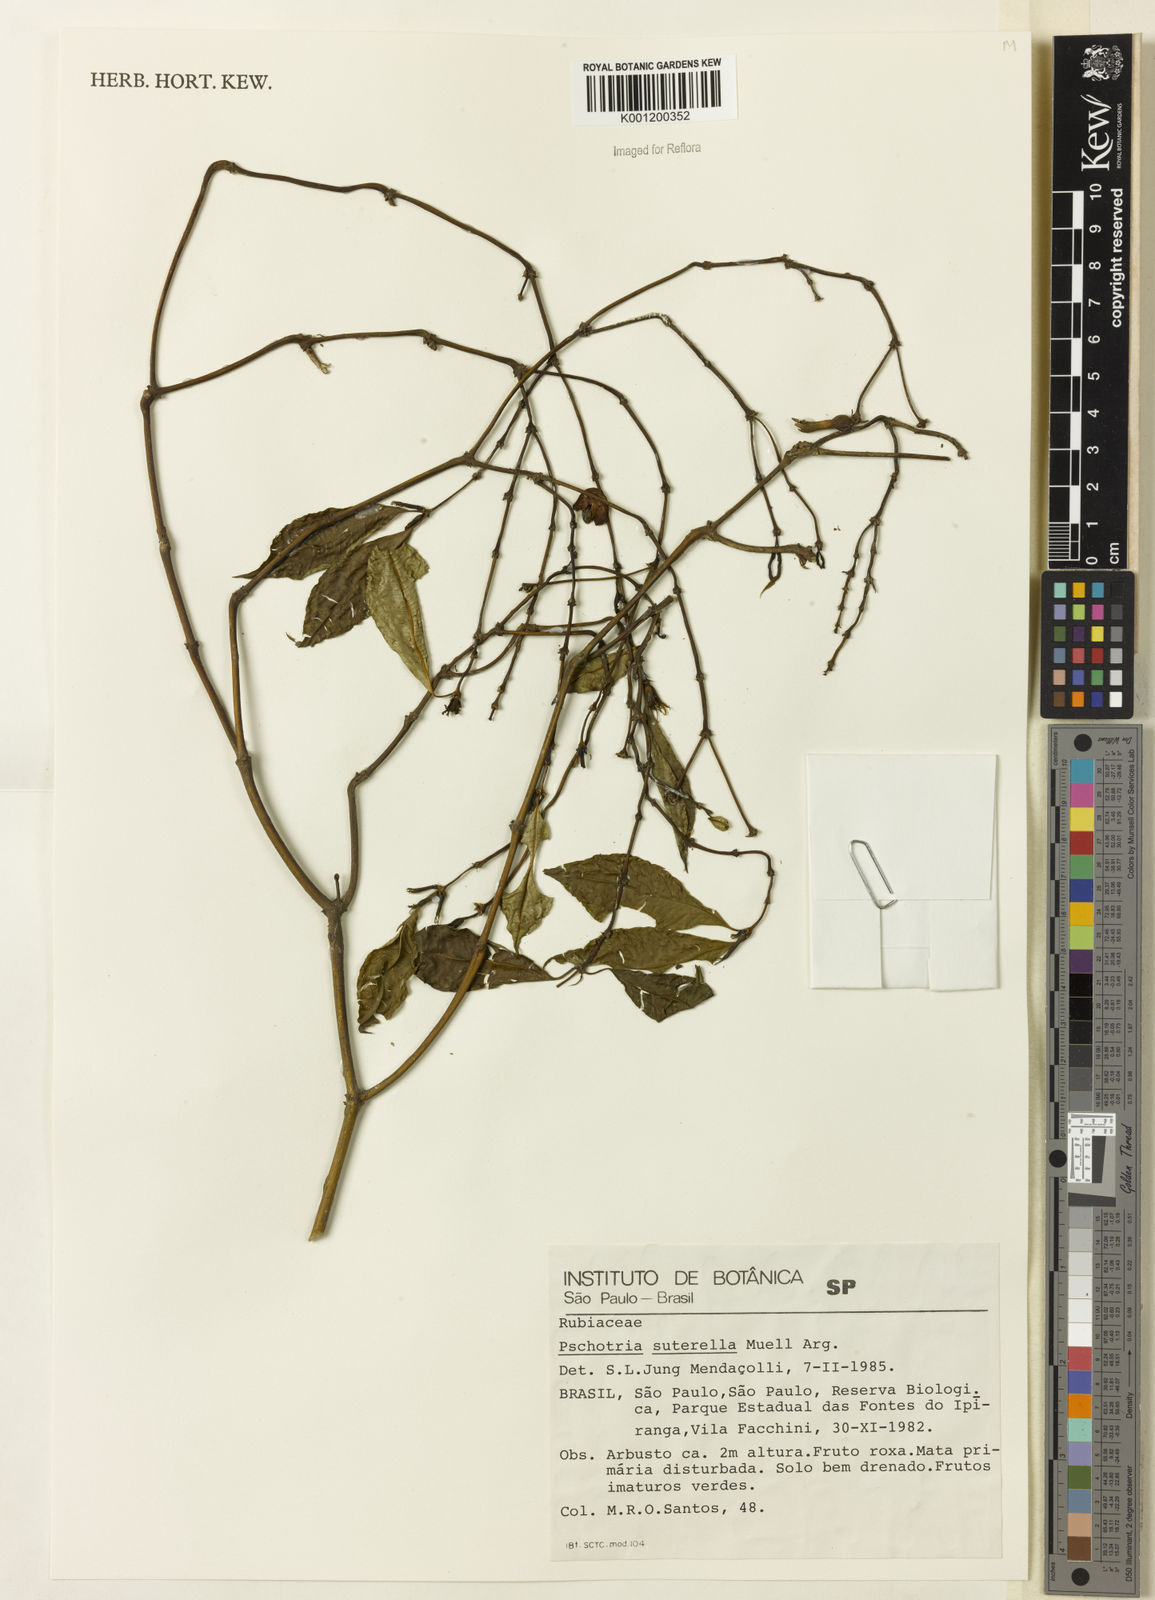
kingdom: Plantae
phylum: Tracheophyta
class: Magnoliopsida
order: Gentianales
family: Rubiaceae
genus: Psychotria
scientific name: Psychotria
